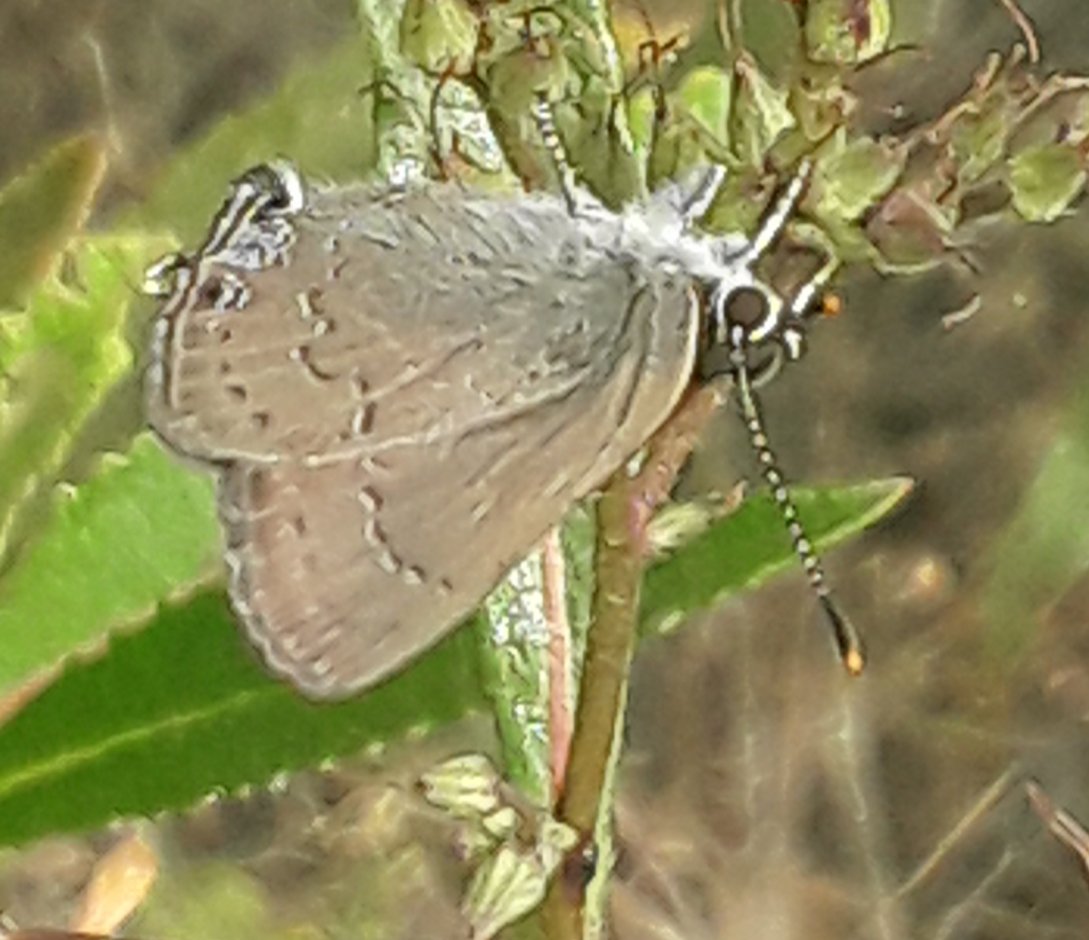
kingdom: Animalia
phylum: Arthropoda
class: Insecta
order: Lepidoptera
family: Lycaenidae
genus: Strymon
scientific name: Strymon saepium
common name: Hedgerow Hairstreak
